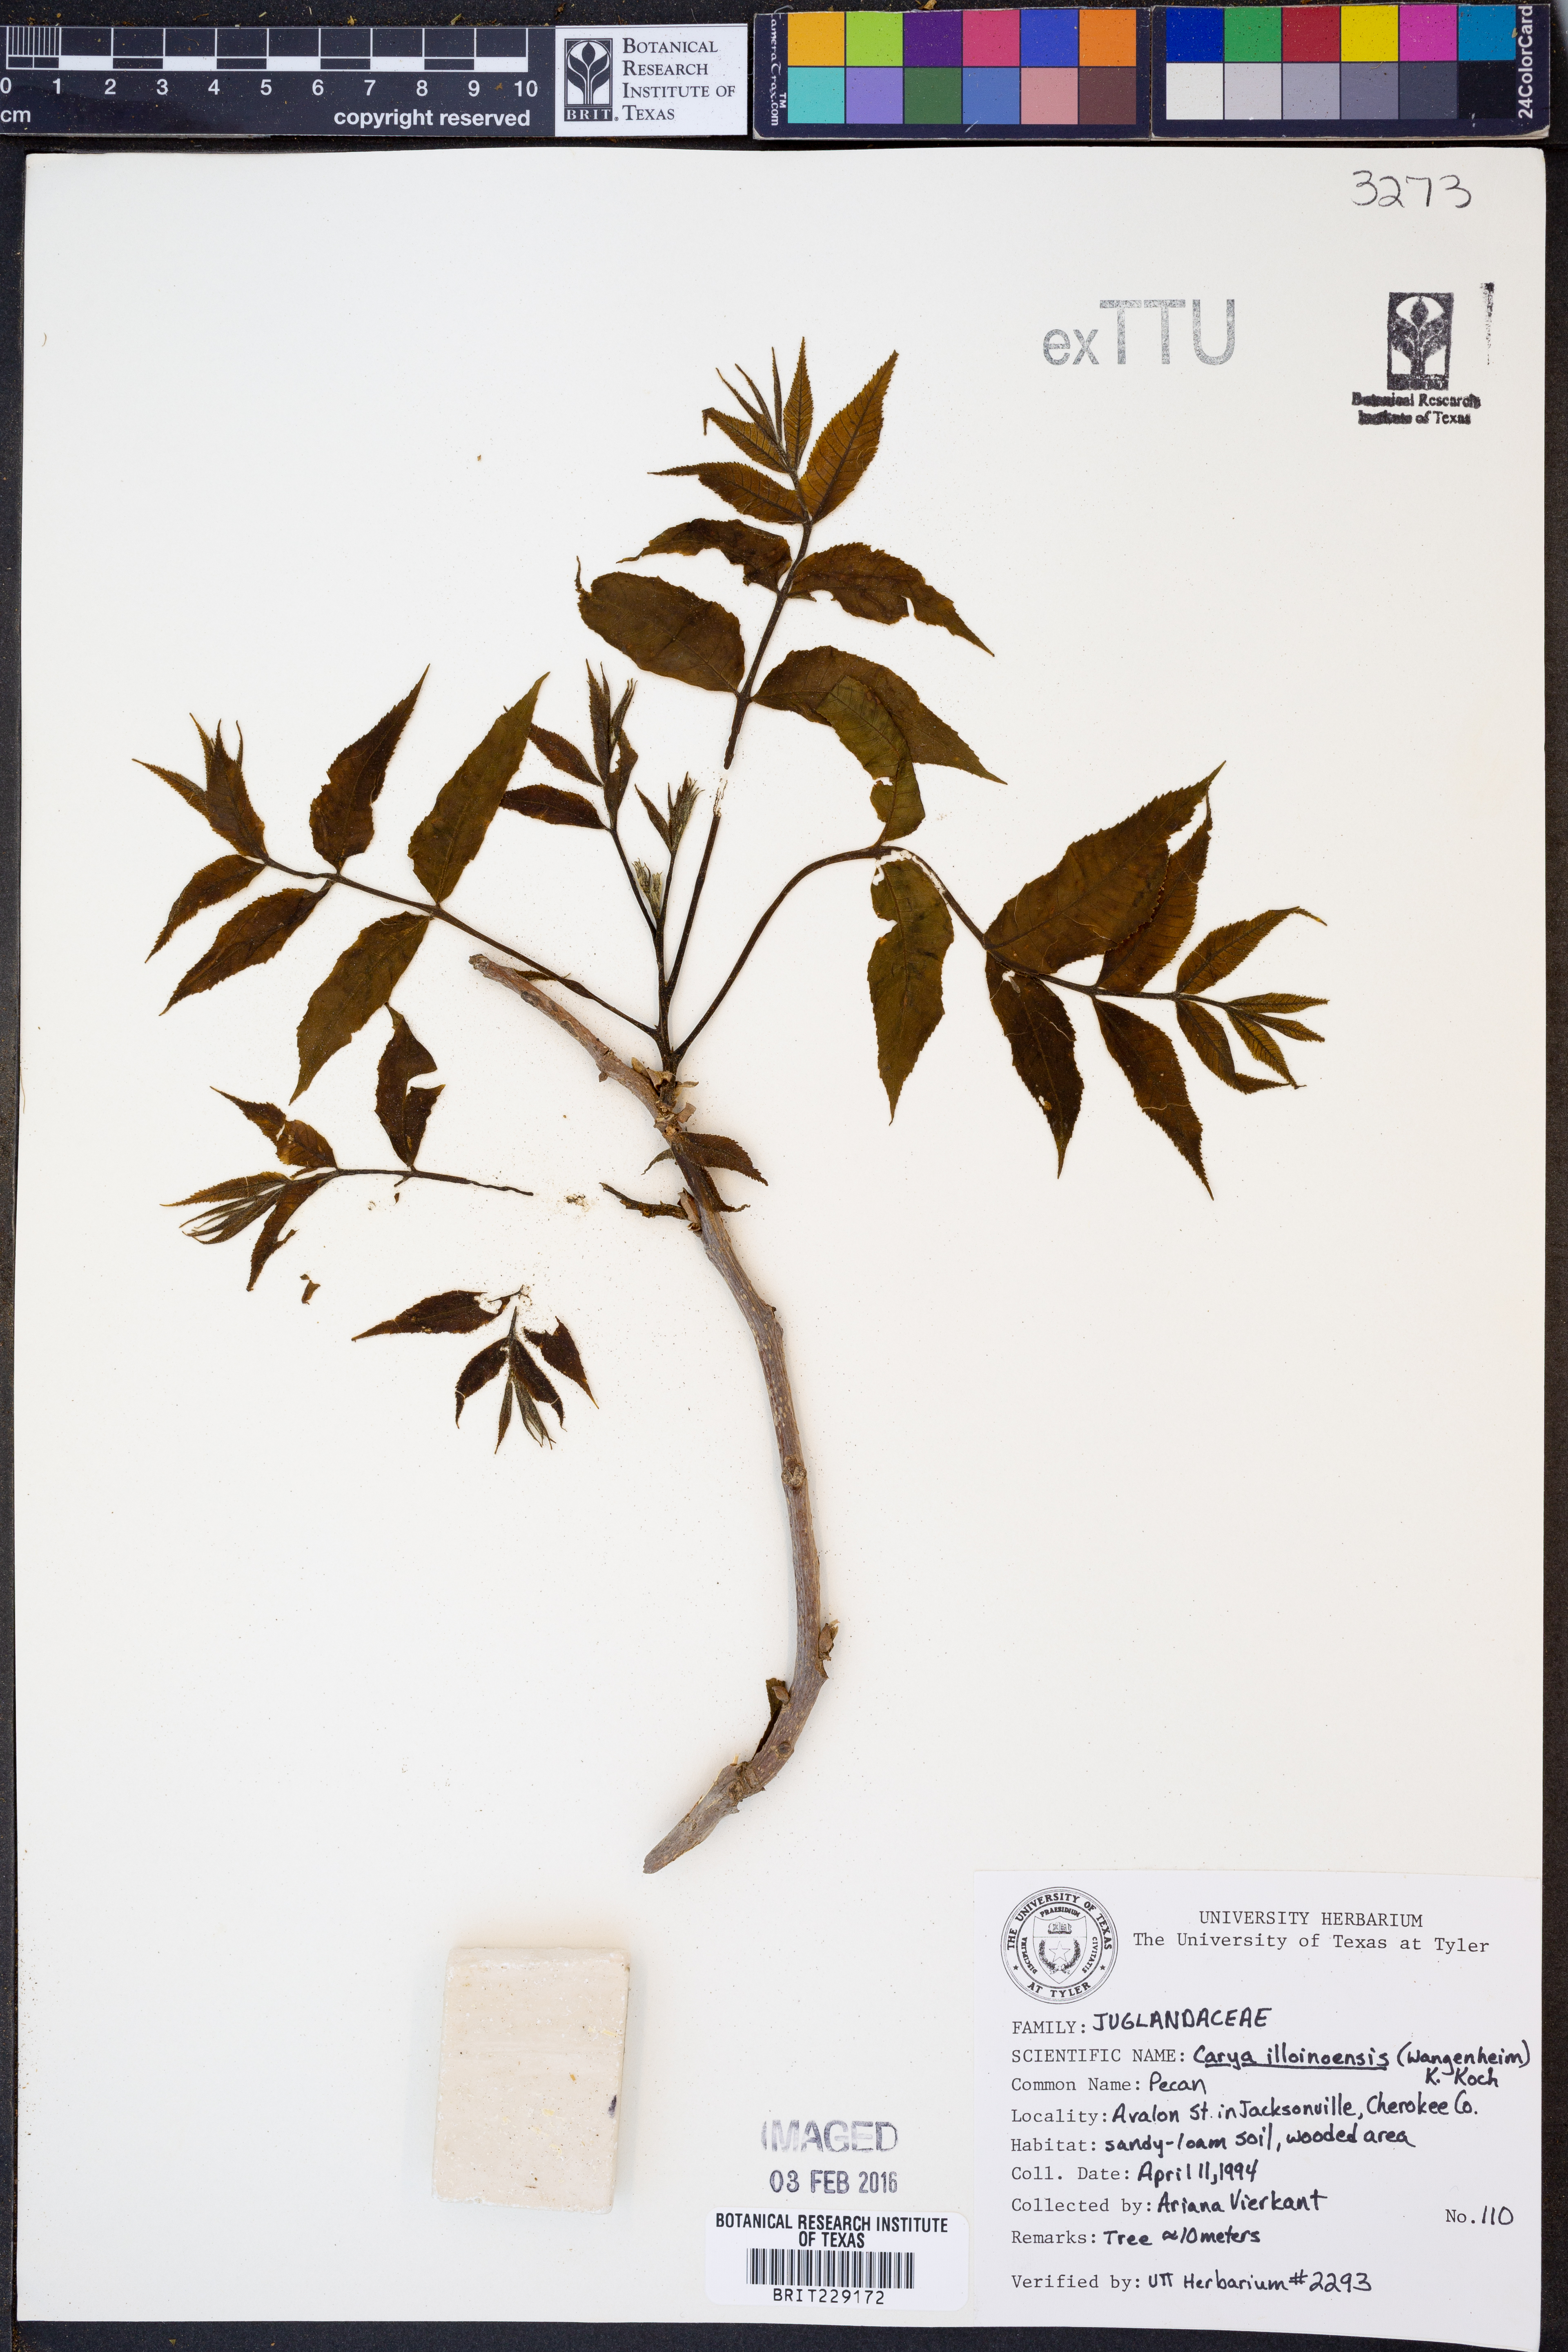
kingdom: Plantae
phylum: Tracheophyta
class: Magnoliopsida
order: Fagales
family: Juglandaceae
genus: Carya
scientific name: Carya
